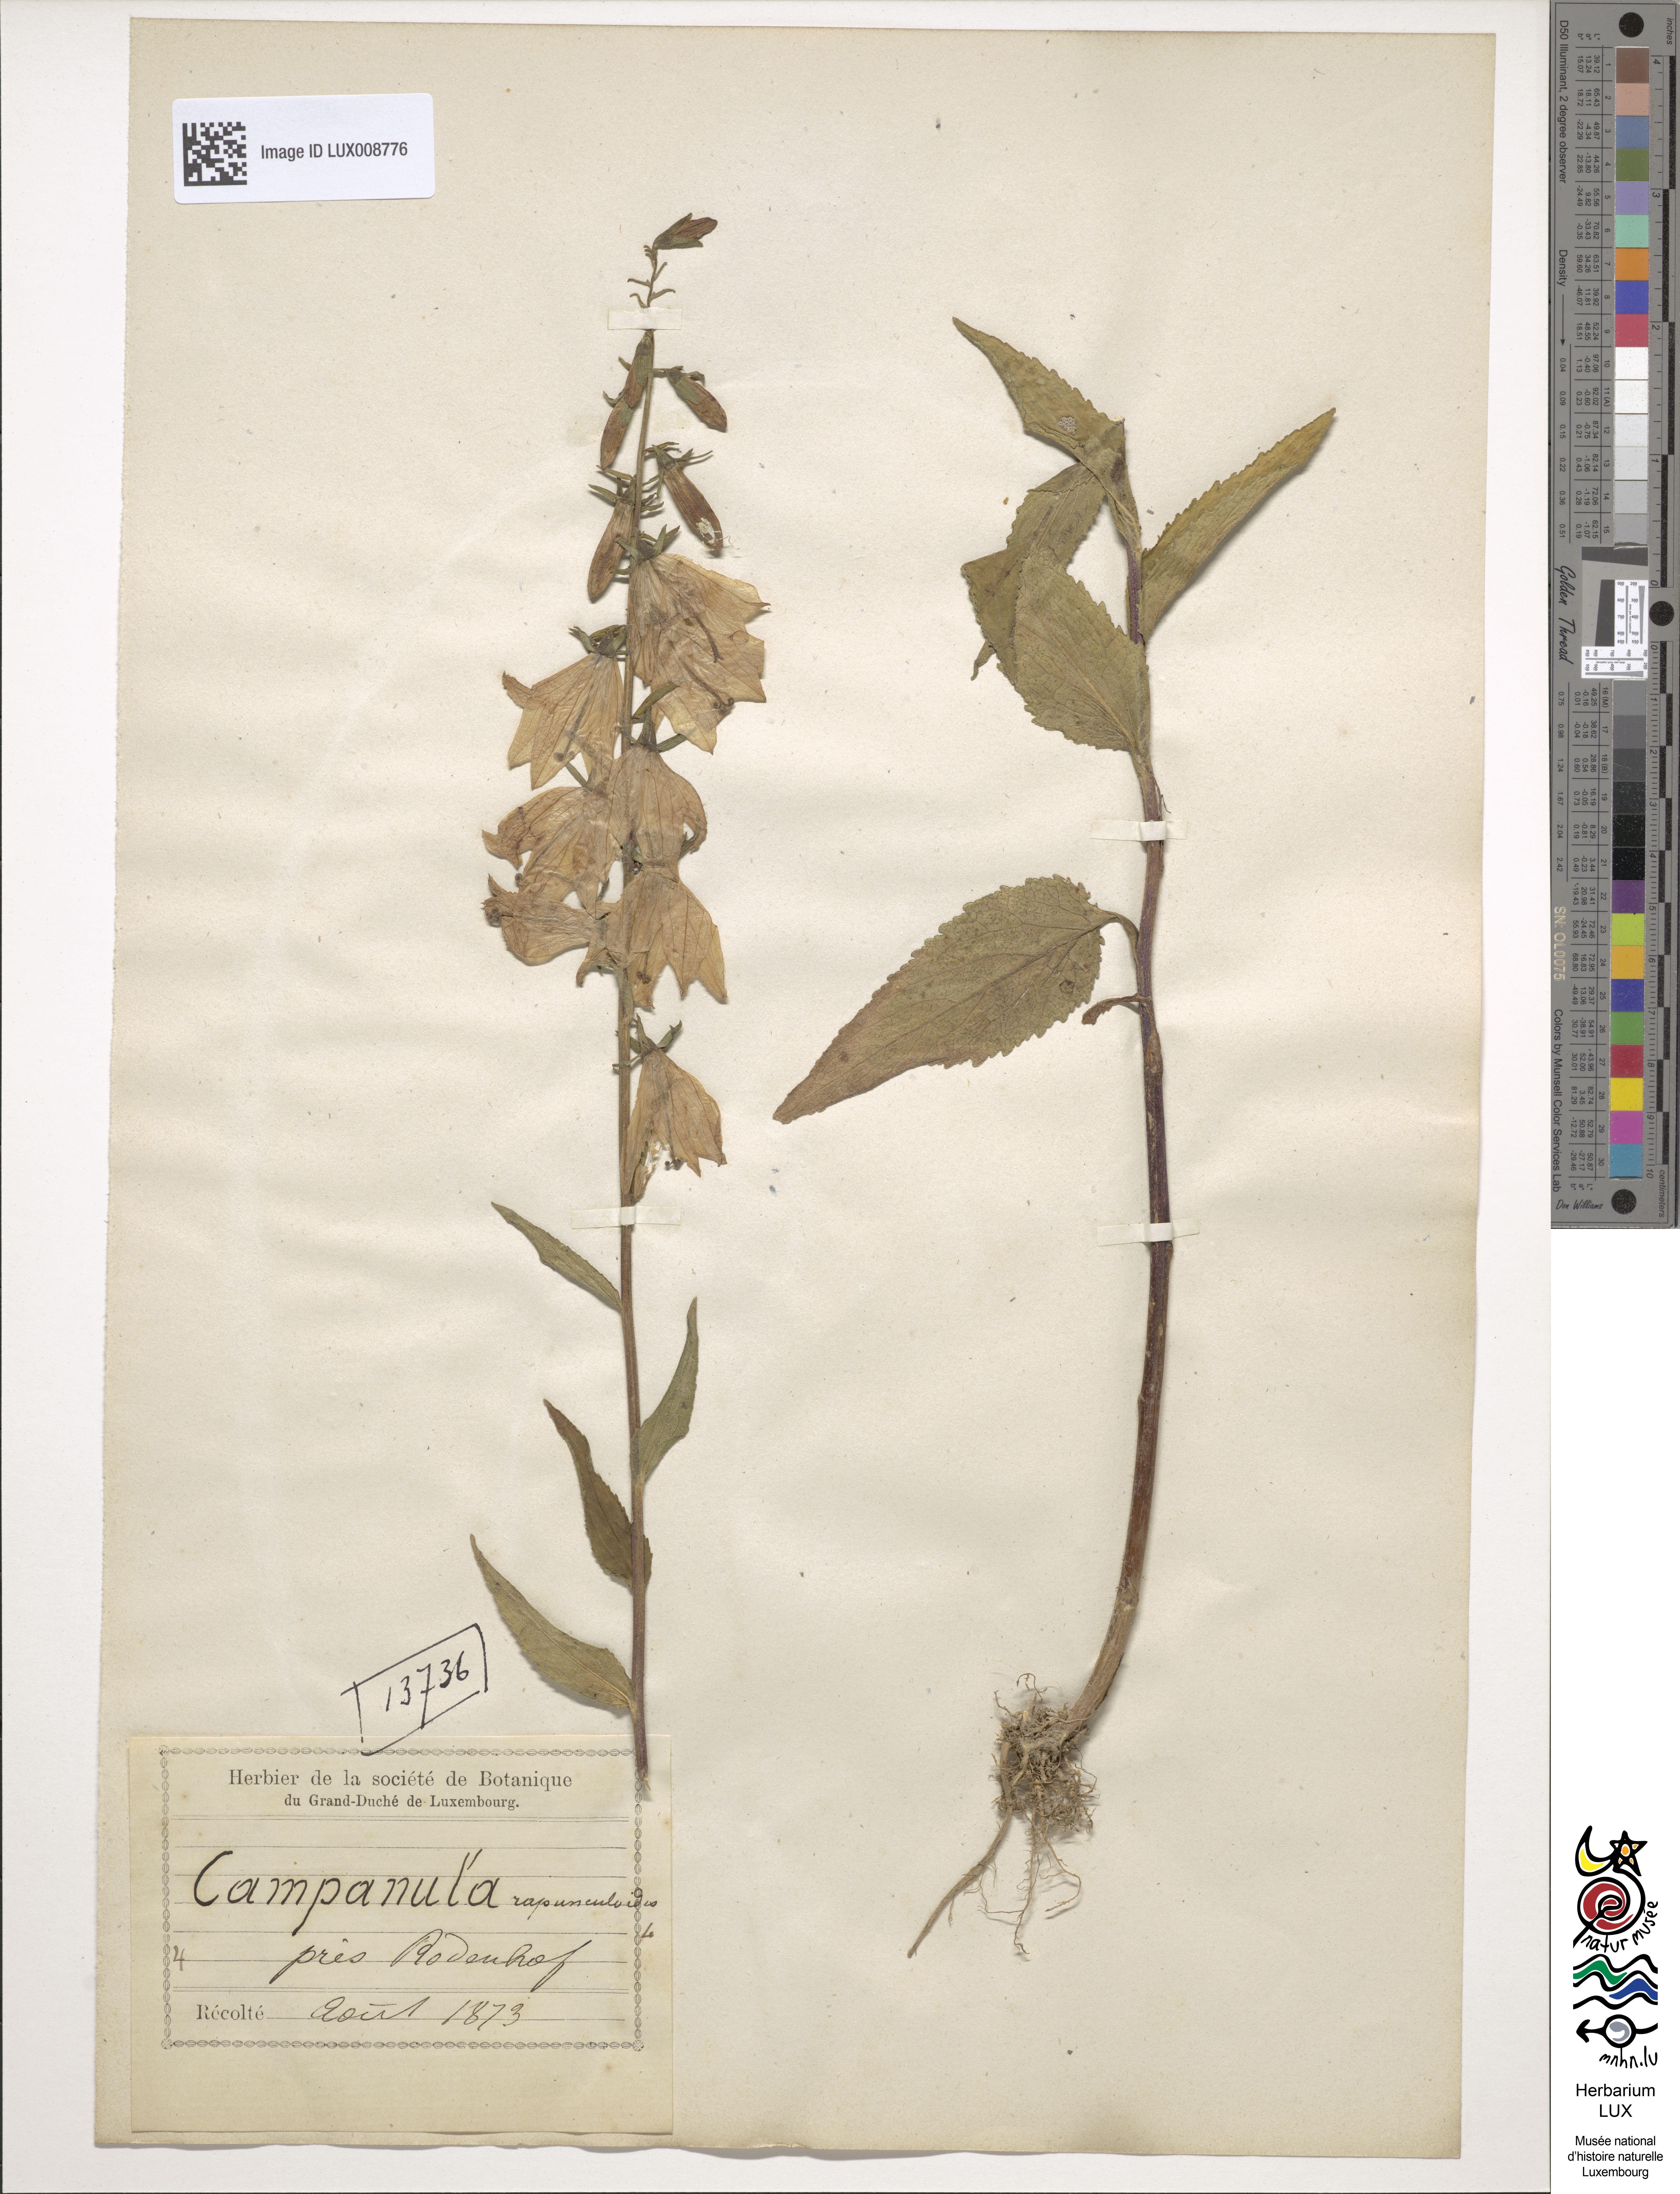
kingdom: Plantae
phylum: Tracheophyta
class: Magnoliopsida
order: Asterales
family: Campanulaceae
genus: Campanula
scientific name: Campanula rapunculoides
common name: Creeping bellflower
